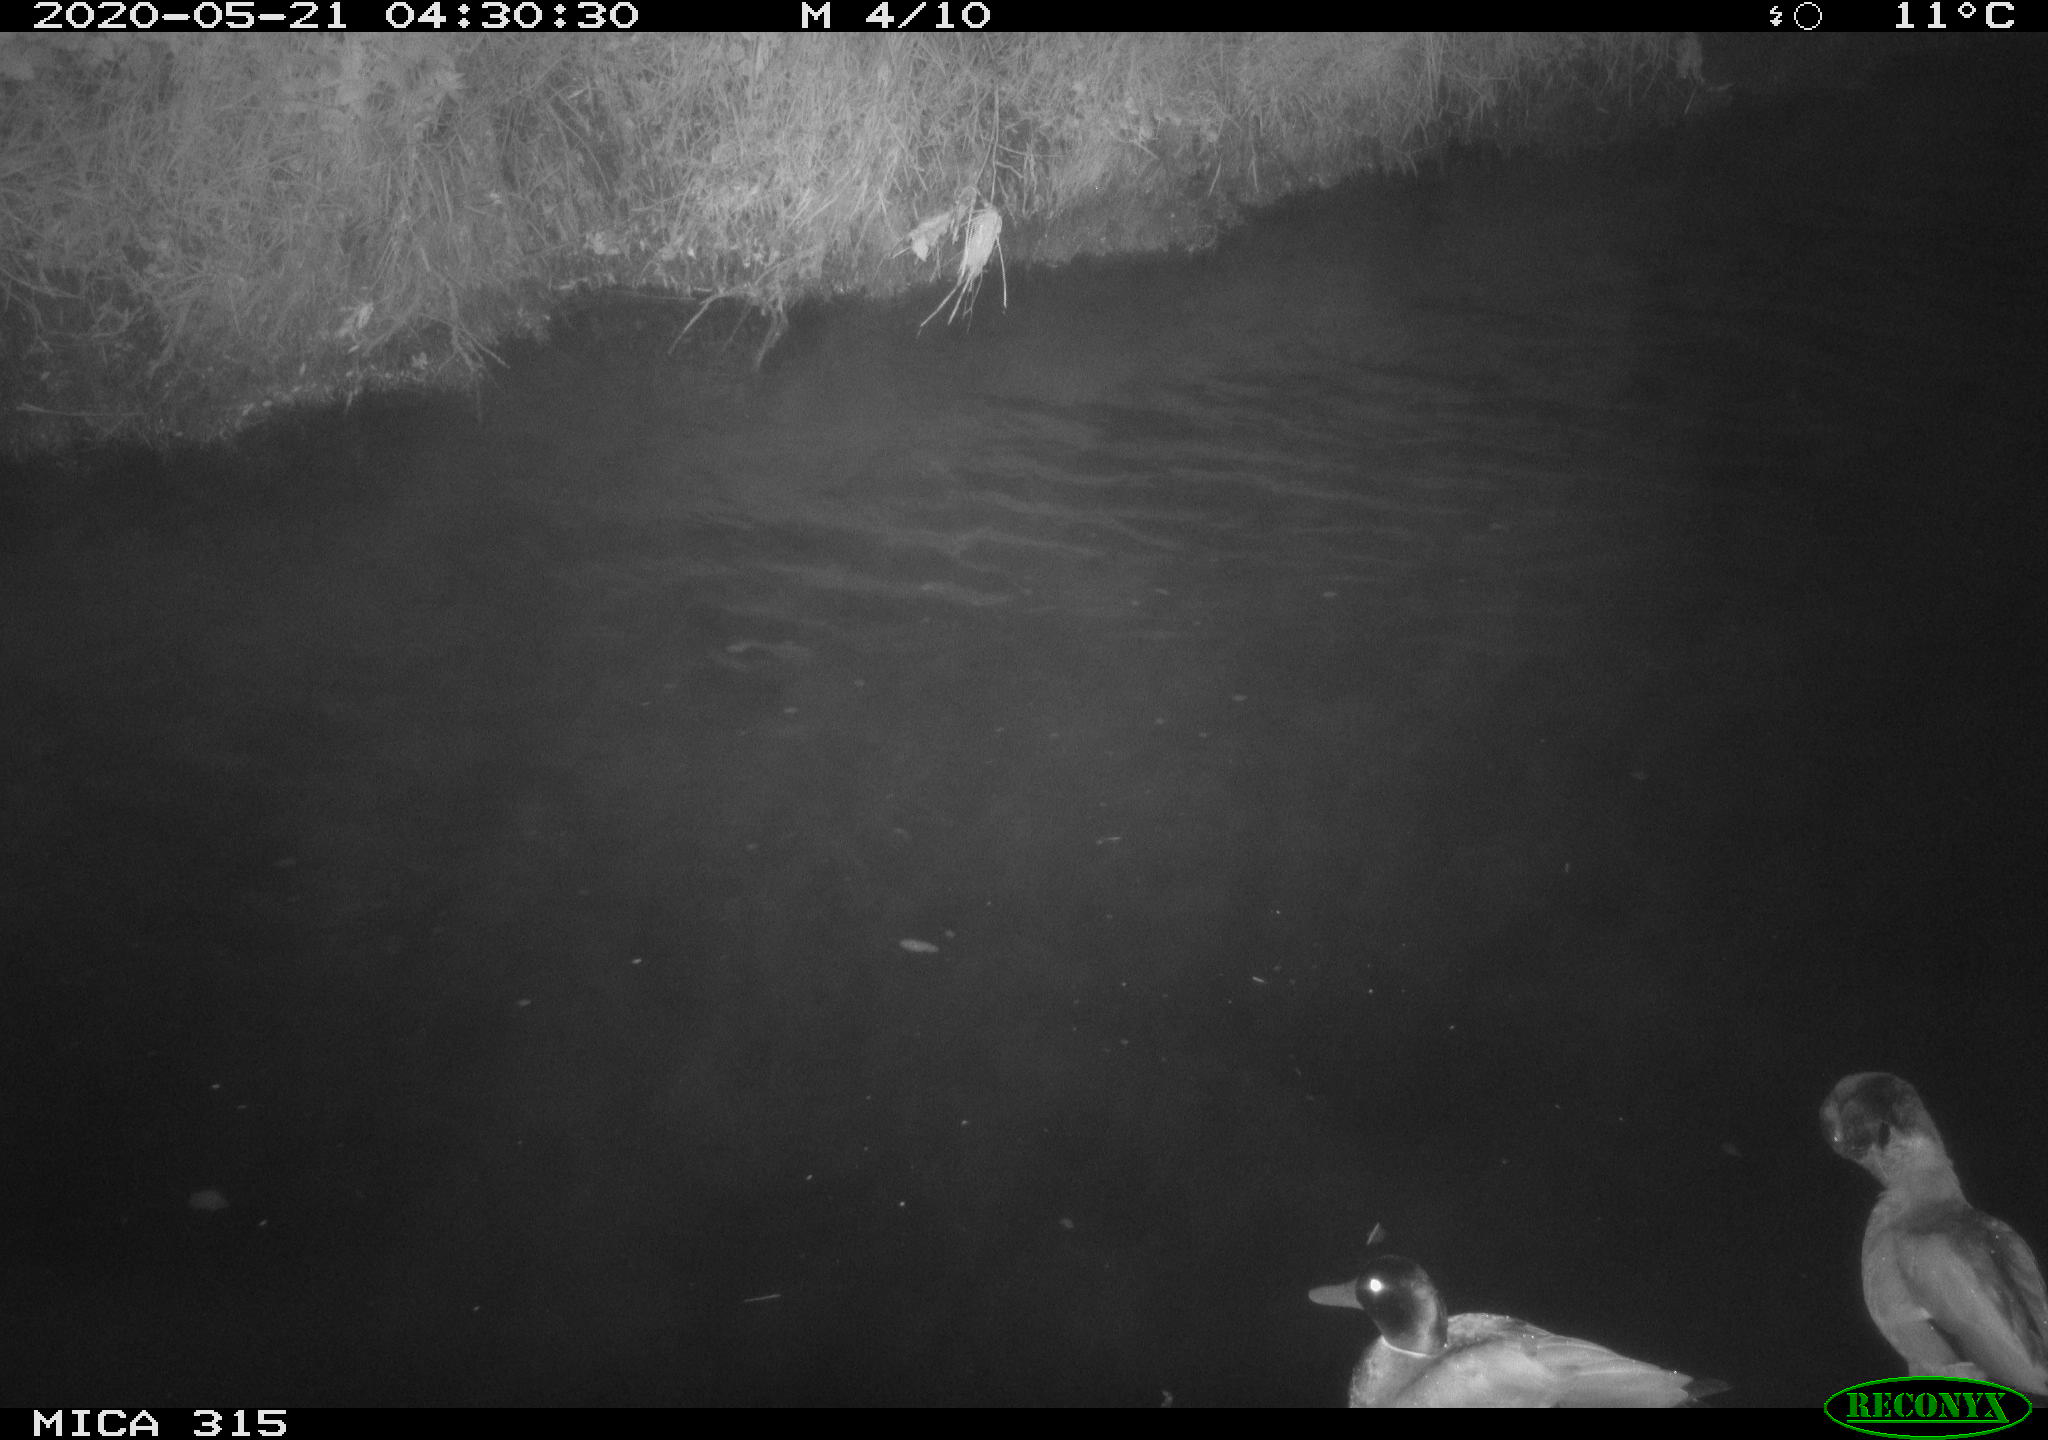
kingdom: Animalia
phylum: Chordata
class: Aves
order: Anseriformes
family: Anatidae
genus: Anas
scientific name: Anas platyrhynchos
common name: Mallard
